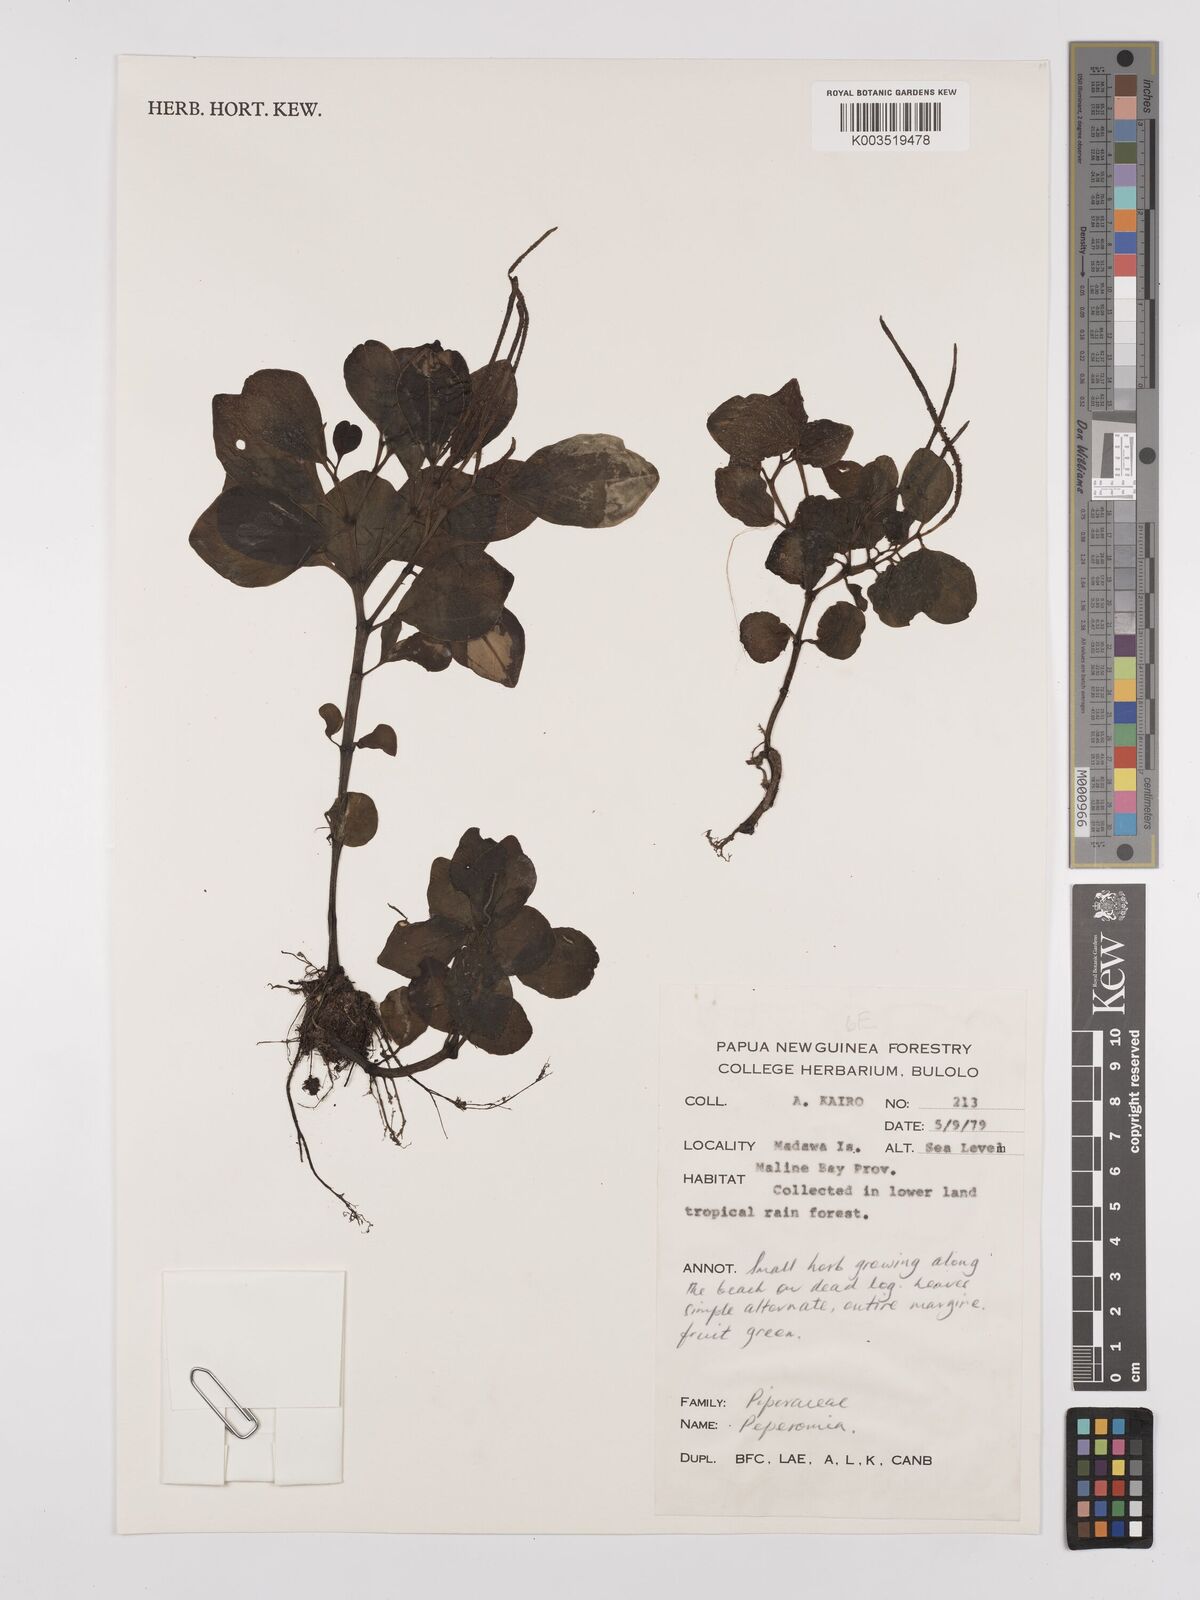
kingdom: Plantae
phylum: Tracheophyta
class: Magnoliopsida
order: Piperales
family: Piperaceae
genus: Peperomia
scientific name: Peperomia
